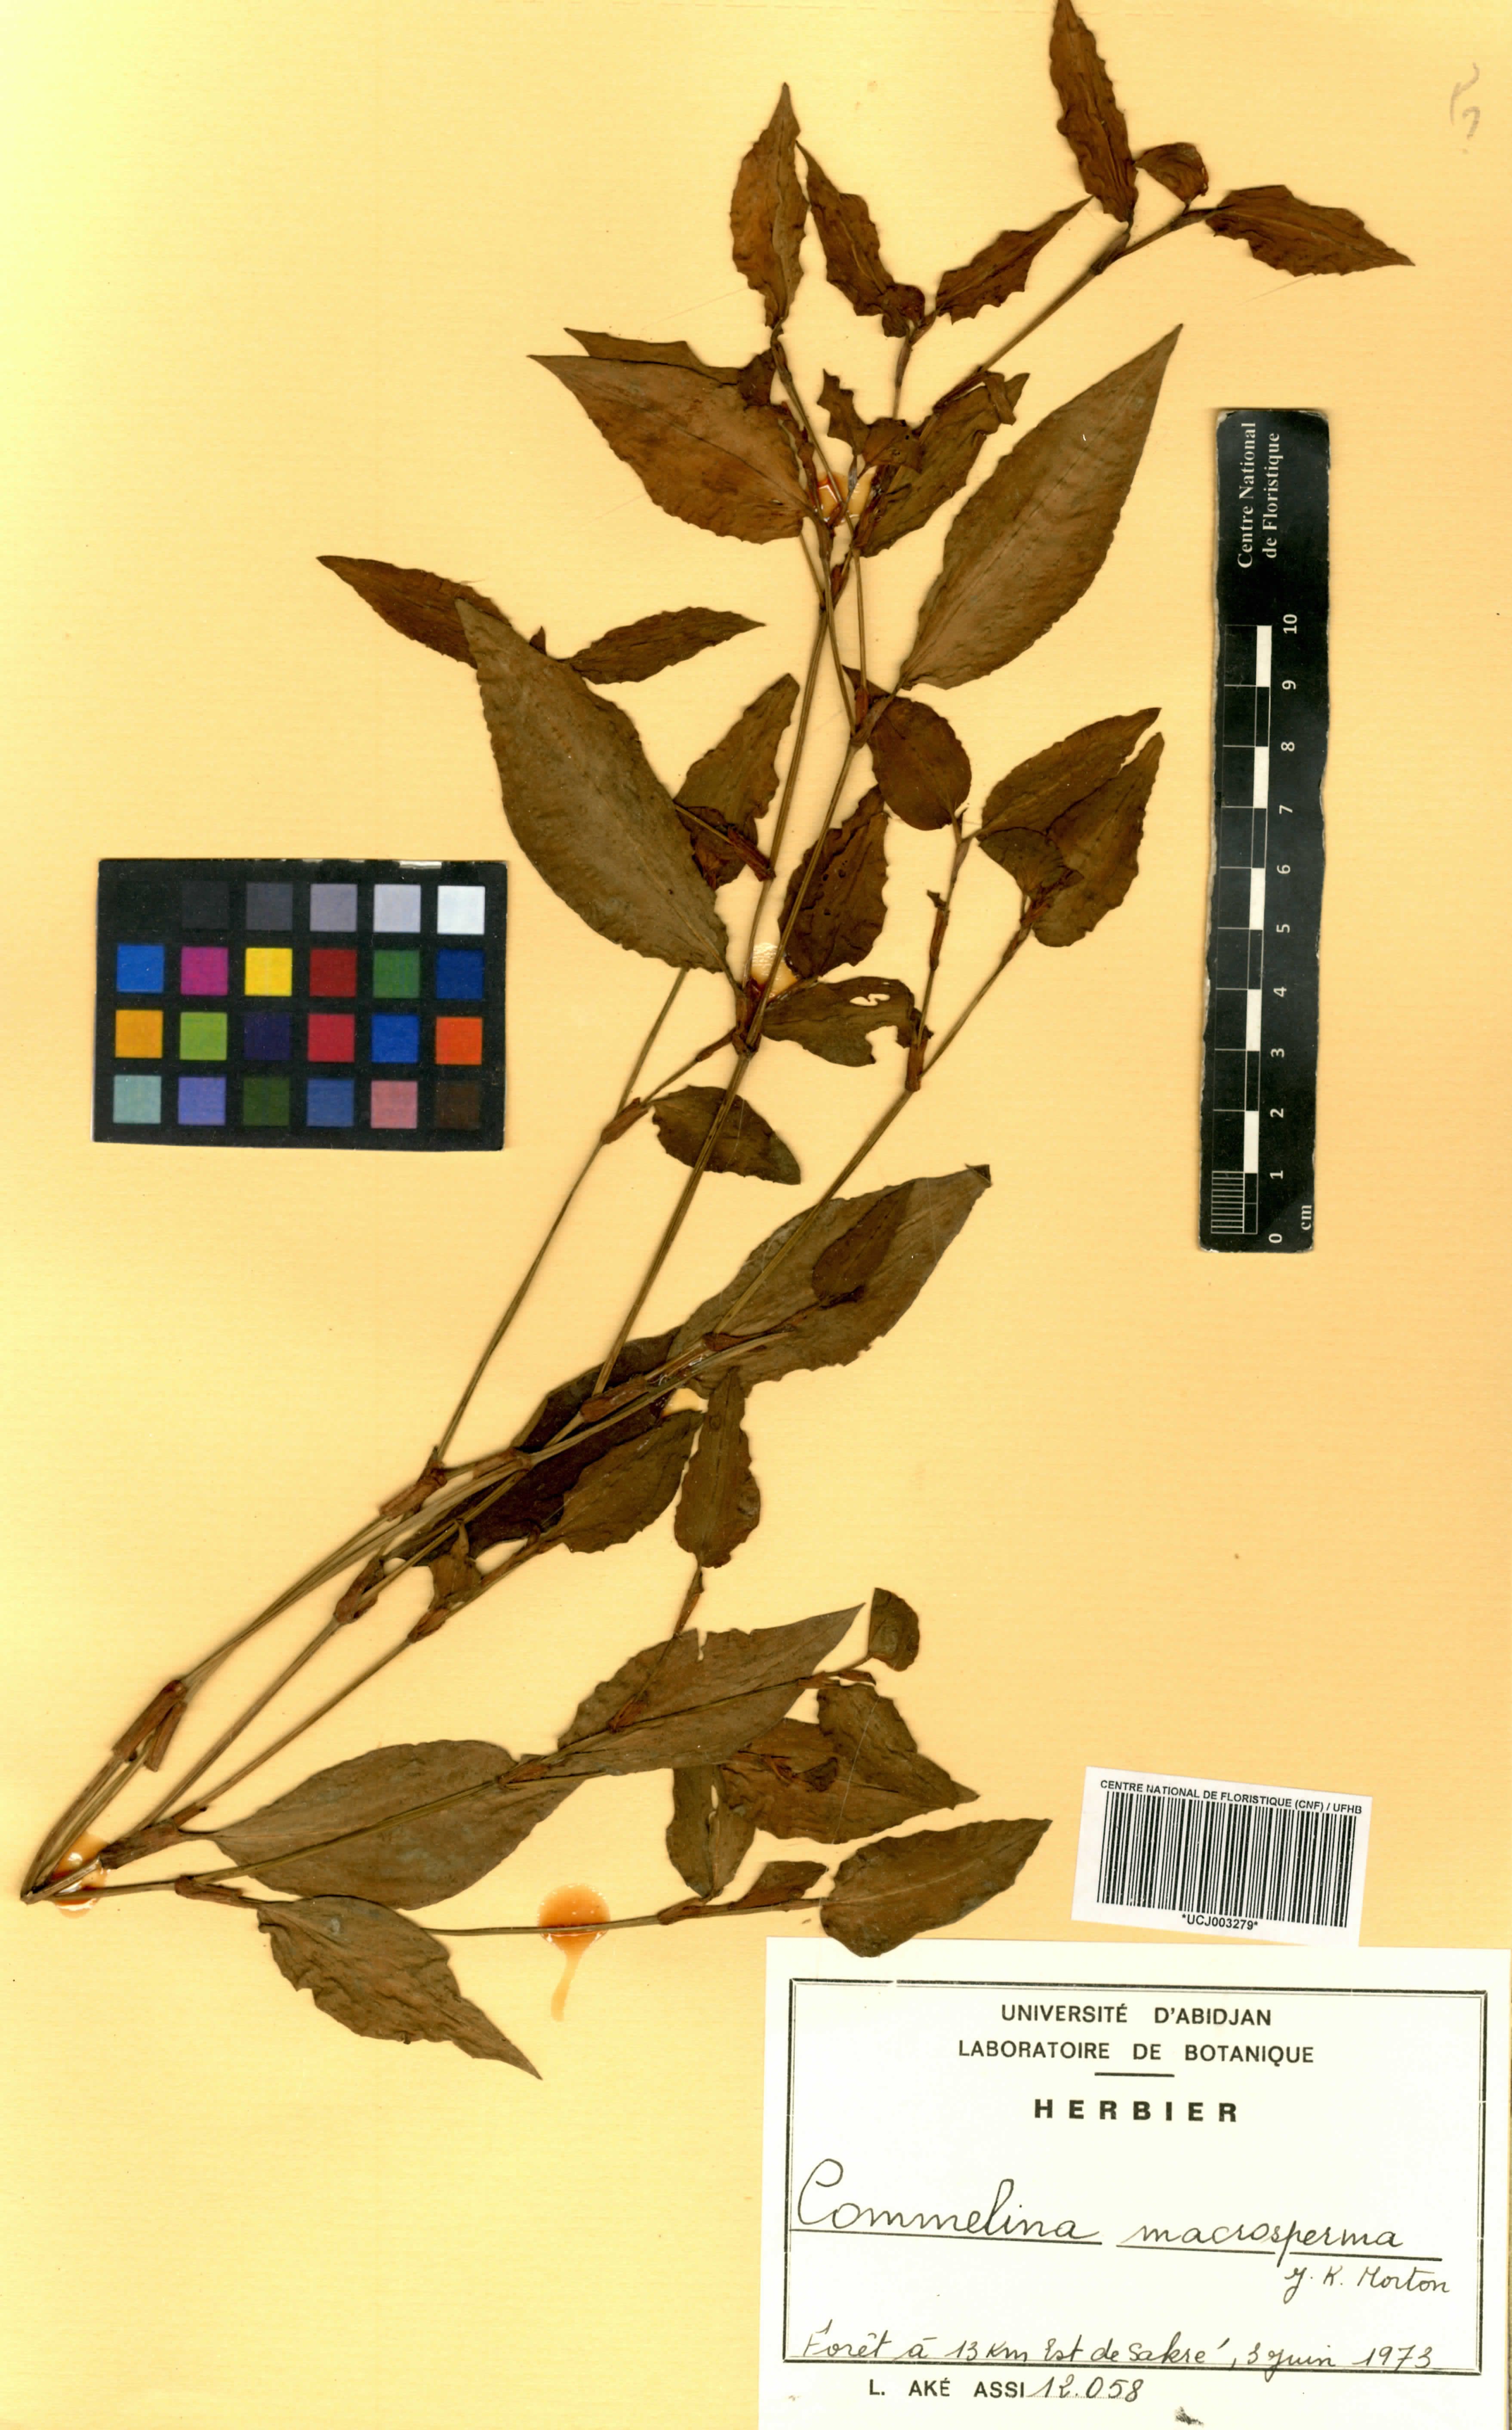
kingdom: Plantae
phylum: Tracheophyta
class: Liliopsida
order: Commelinales
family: Commelinaceae
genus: Commelina
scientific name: Commelina macrosperma
